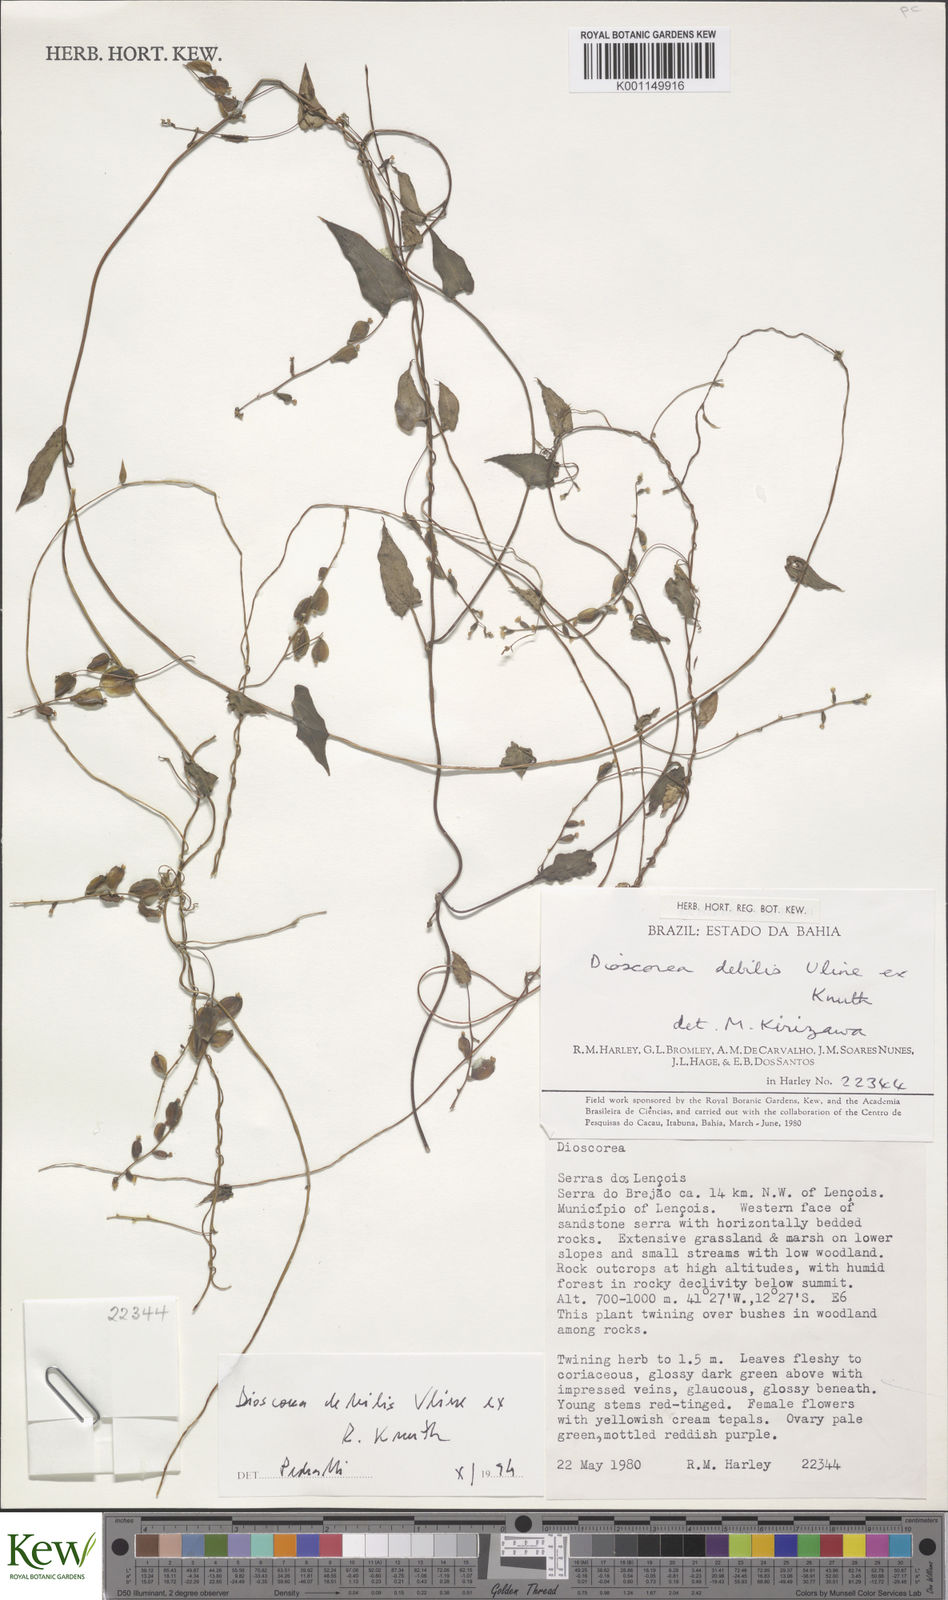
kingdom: Plantae
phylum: Tracheophyta
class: Liliopsida
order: Dioscoreales
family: Dioscoreaceae
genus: Dioscorea
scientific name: Dioscorea debilis
